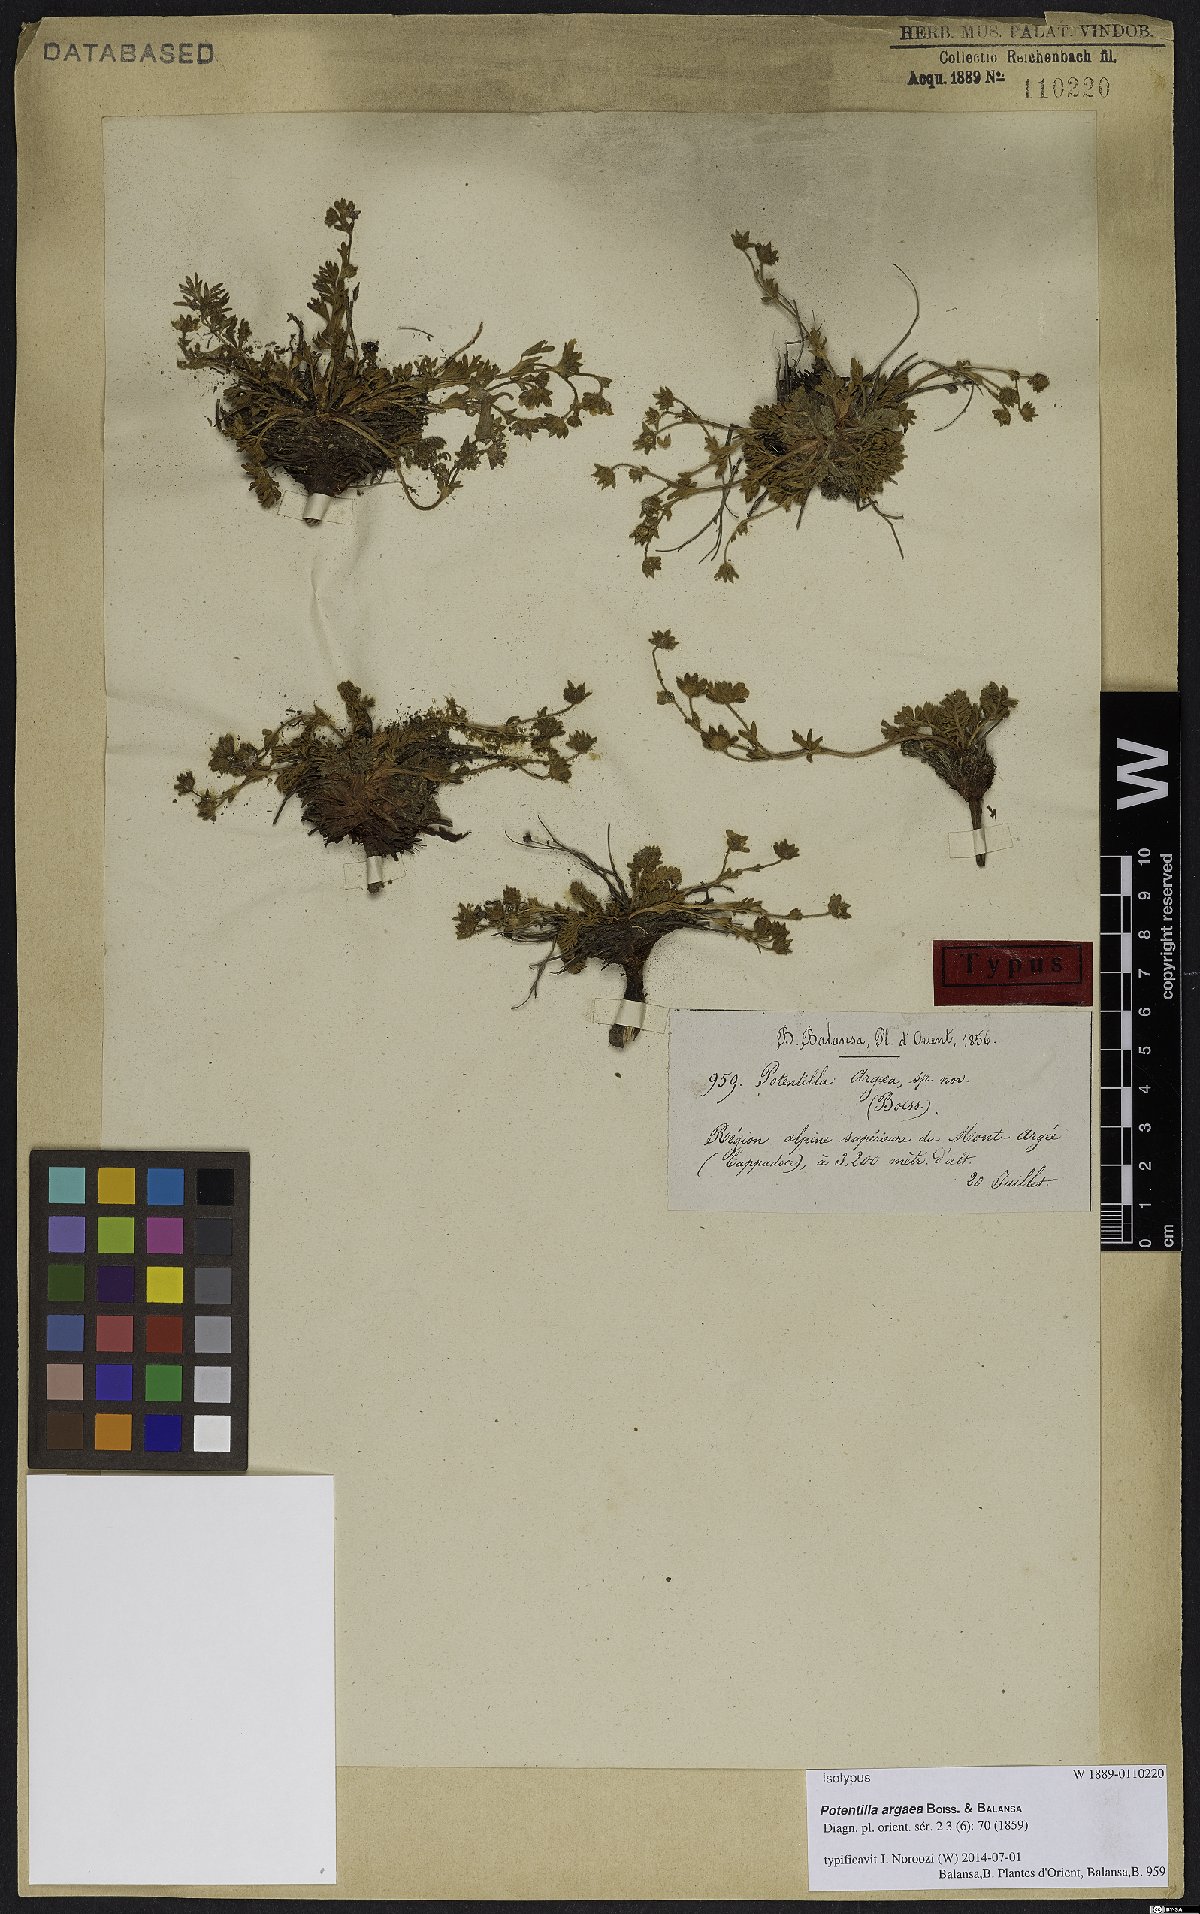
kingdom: Plantae
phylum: Tracheophyta
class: Magnoliopsida
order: Rosales
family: Rosaceae
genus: Potentilla
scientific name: Potentilla argaea
